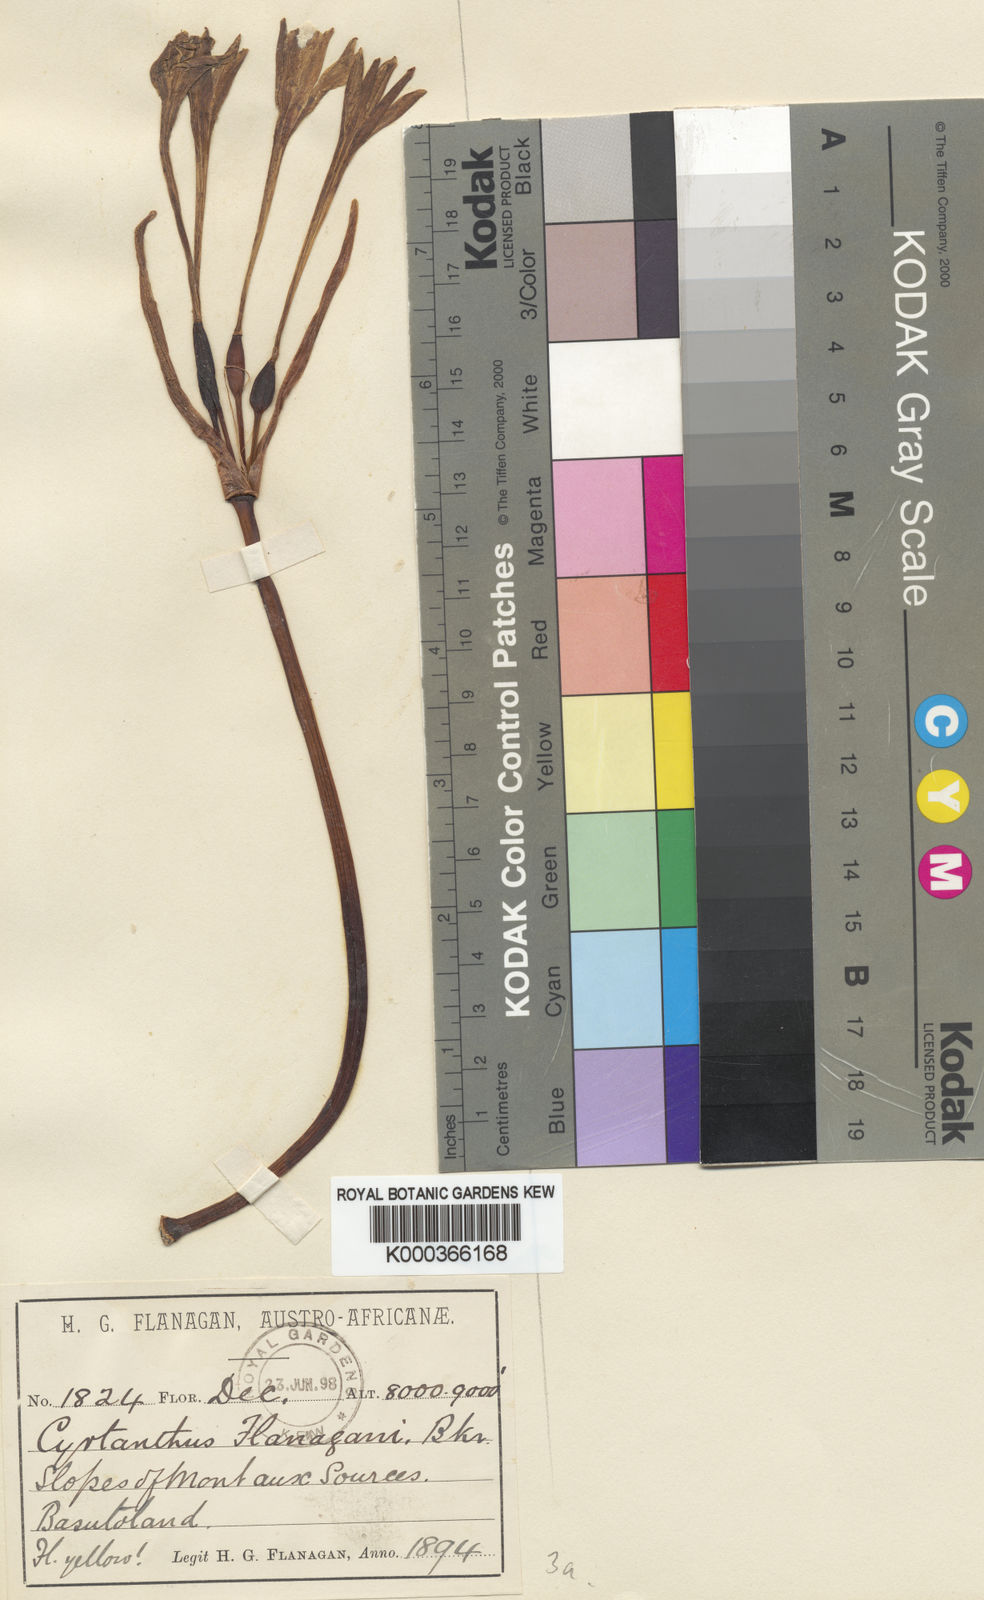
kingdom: Plantae
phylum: Tracheophyta
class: Liliopsida
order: Asparagales
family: Amaryllidaceae
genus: Cyrtanthus
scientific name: Cyrtanthus flanaganii
